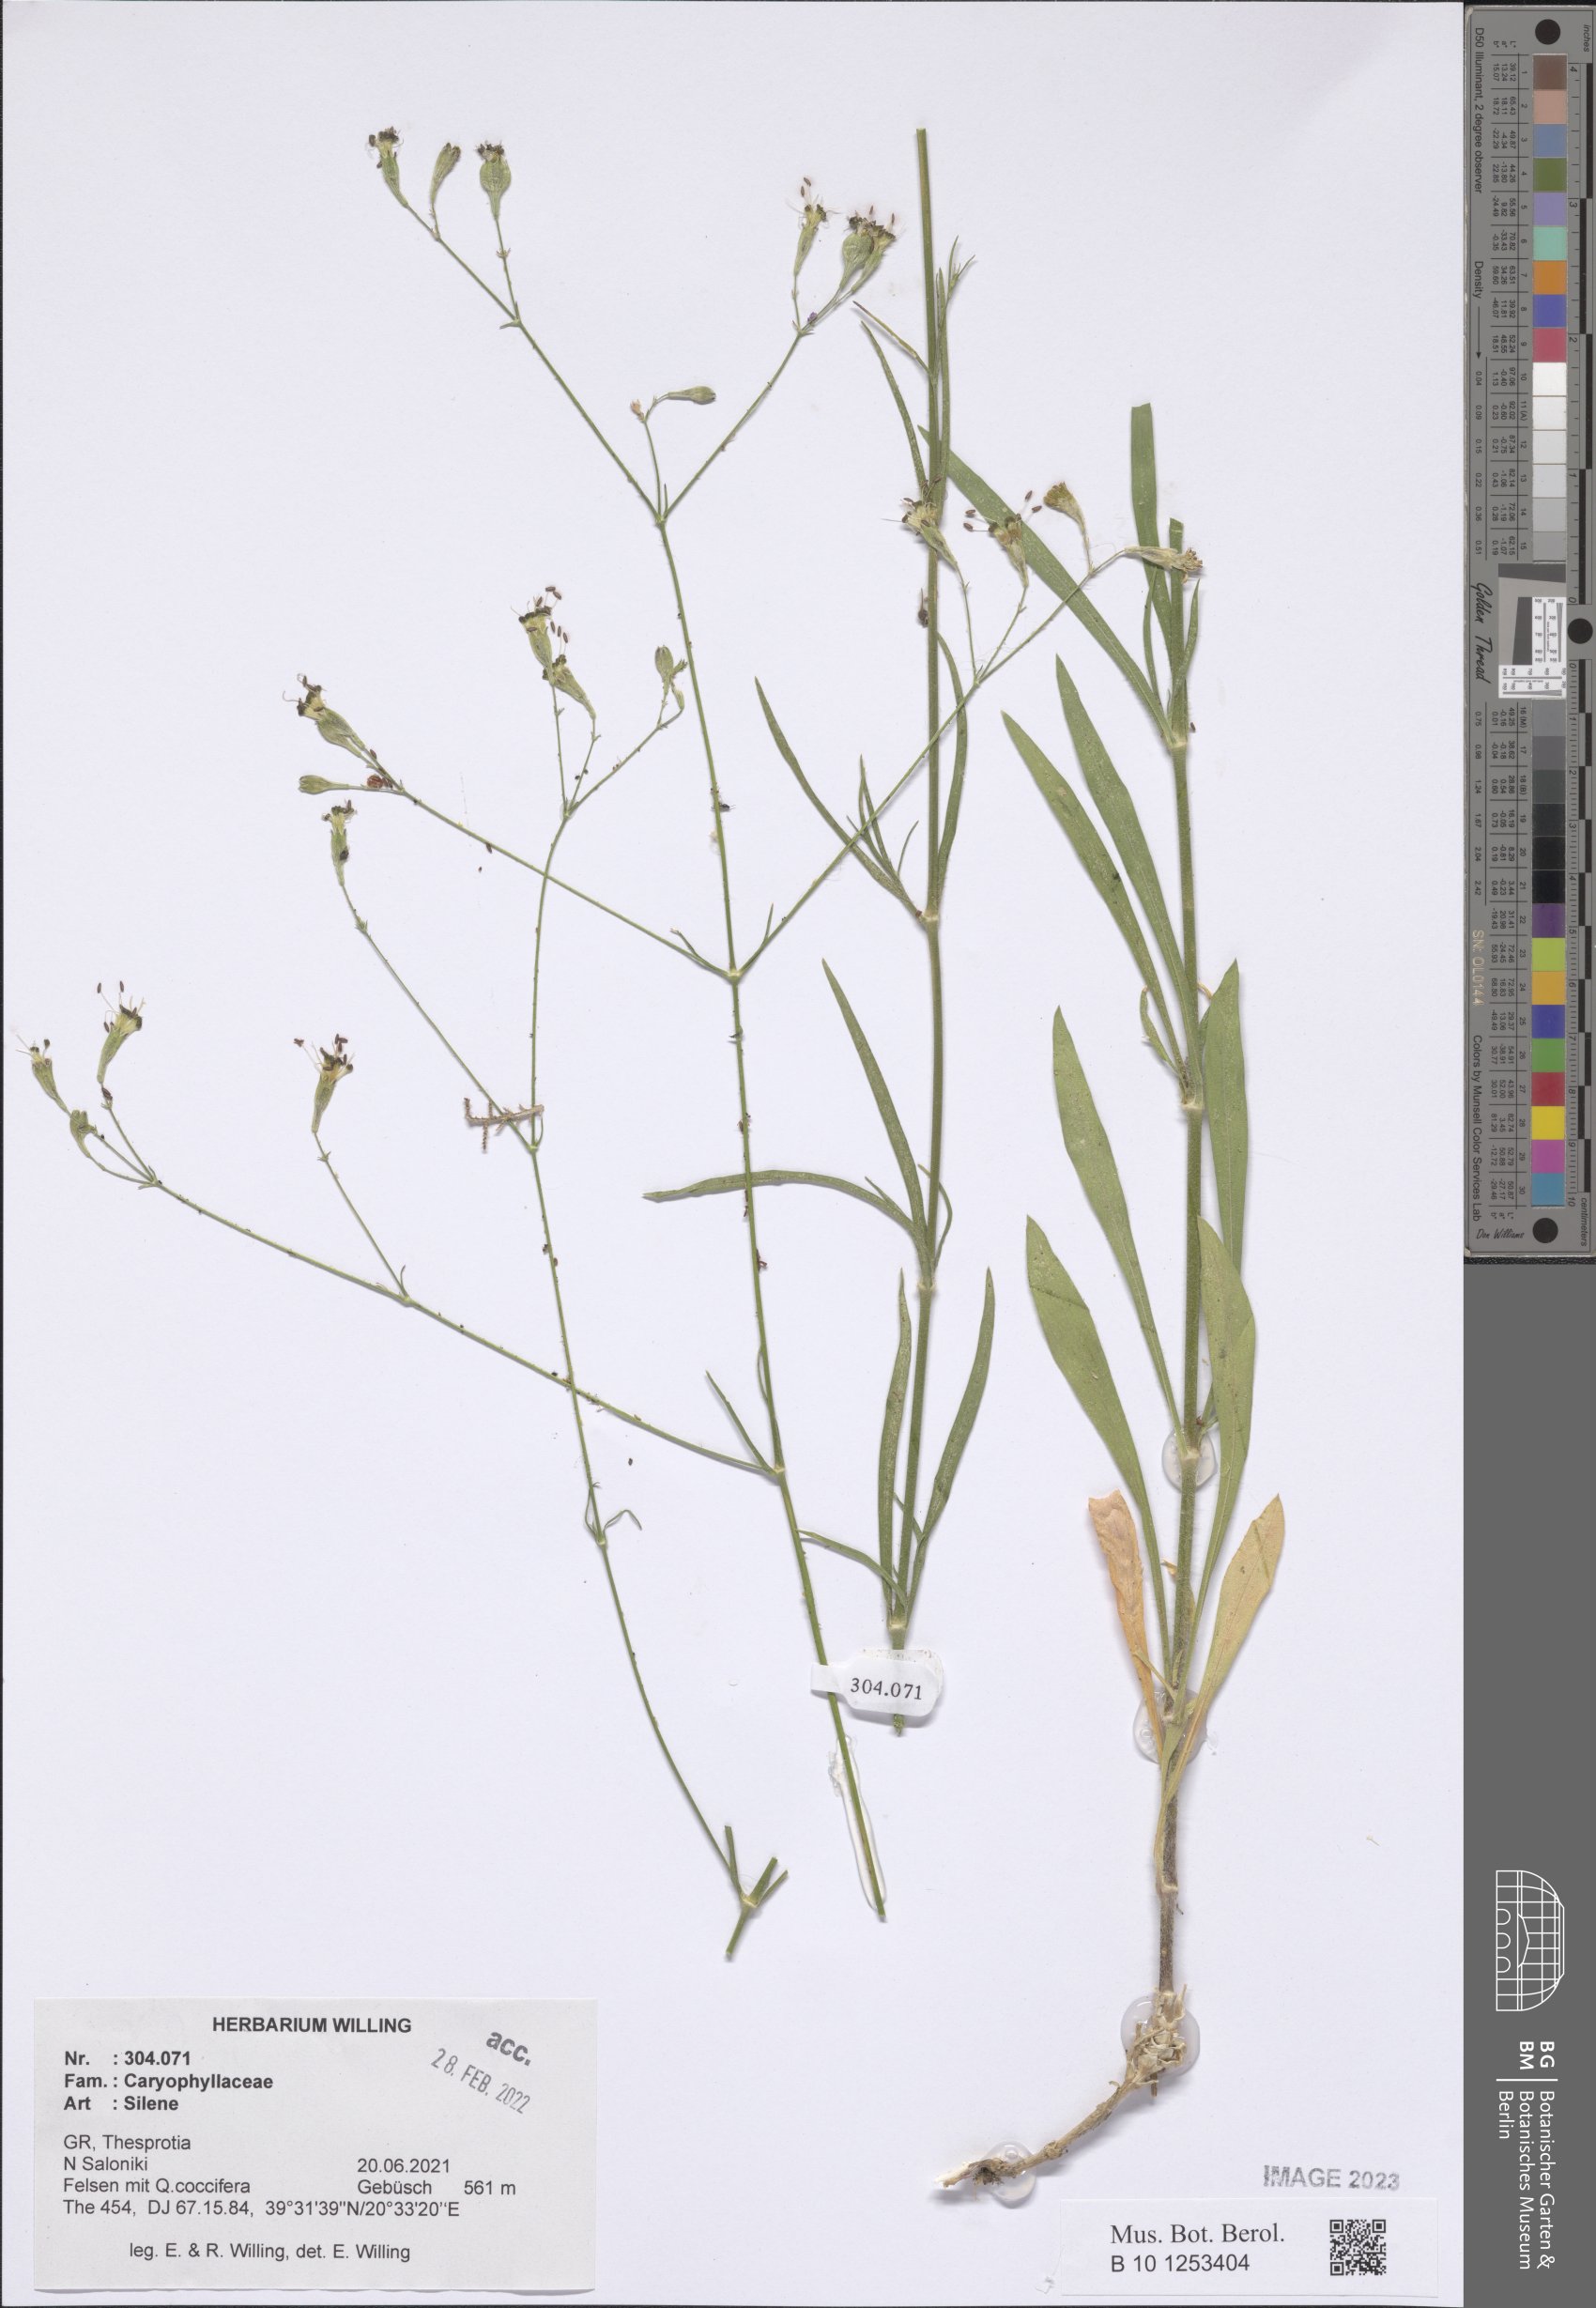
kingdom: Plantae
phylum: Tracheophyta
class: Magnoliopsida
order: Caryophyllales
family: Caryophyllaceae
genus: Silene
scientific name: Silene
